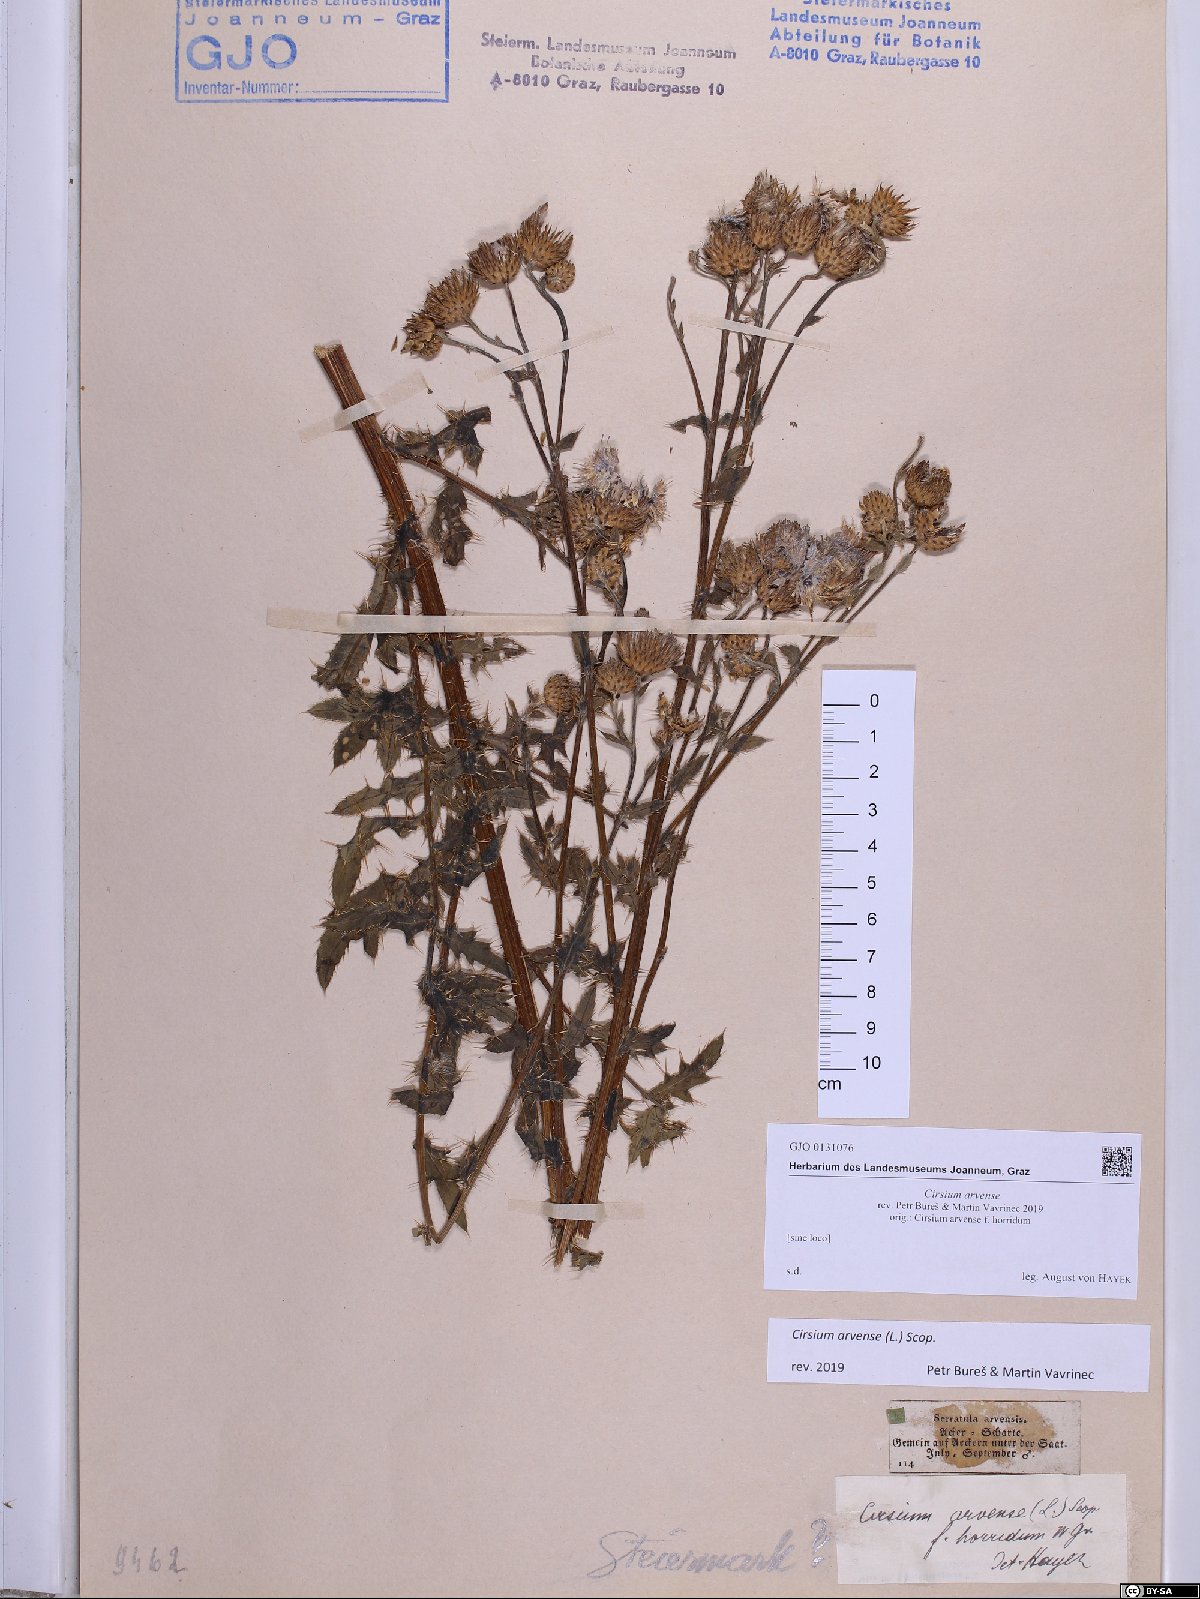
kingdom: Plantae
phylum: Tracheophyta
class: Magnoliopsida
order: Asterales
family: Asteraceae
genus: Cirsium
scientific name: Cirsium arvense
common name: Creeping thistle
